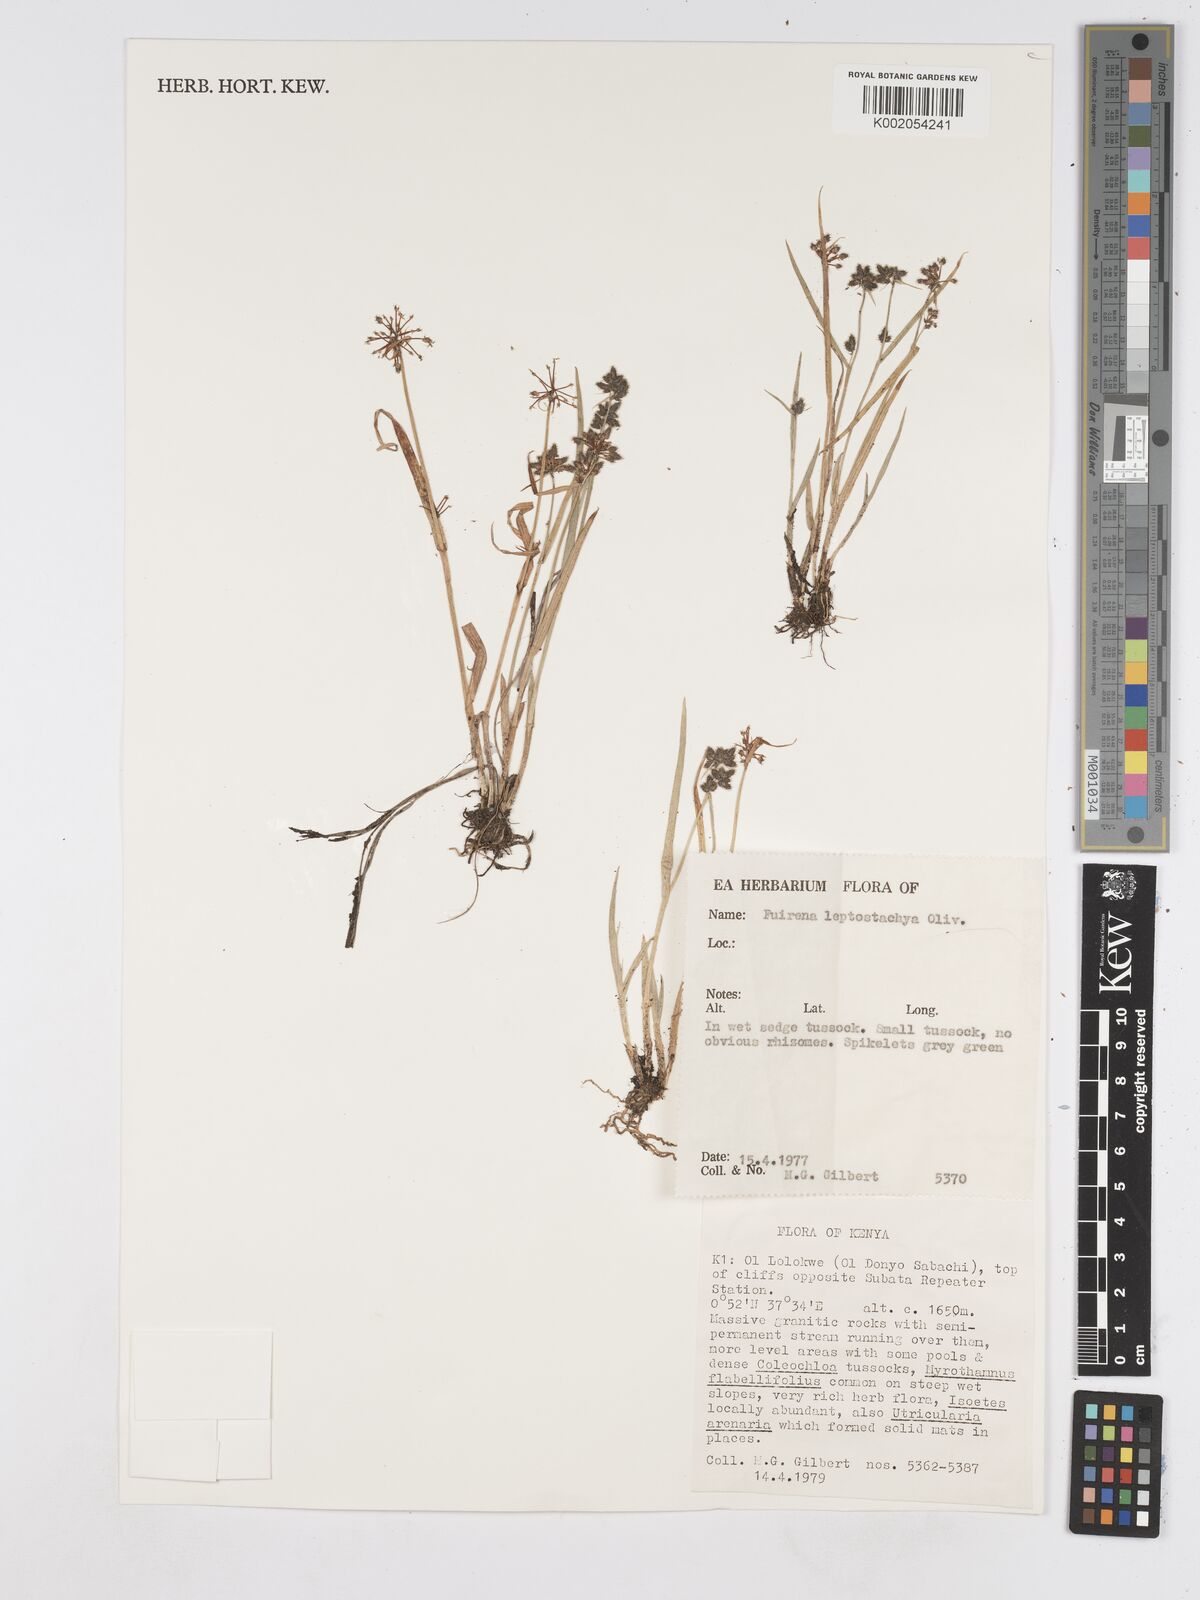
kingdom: Plantae
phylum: Tracheophyta
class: Liliopsida
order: Poales
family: Cyperaceae
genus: Fuirena
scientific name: Fuirena leptostachya
